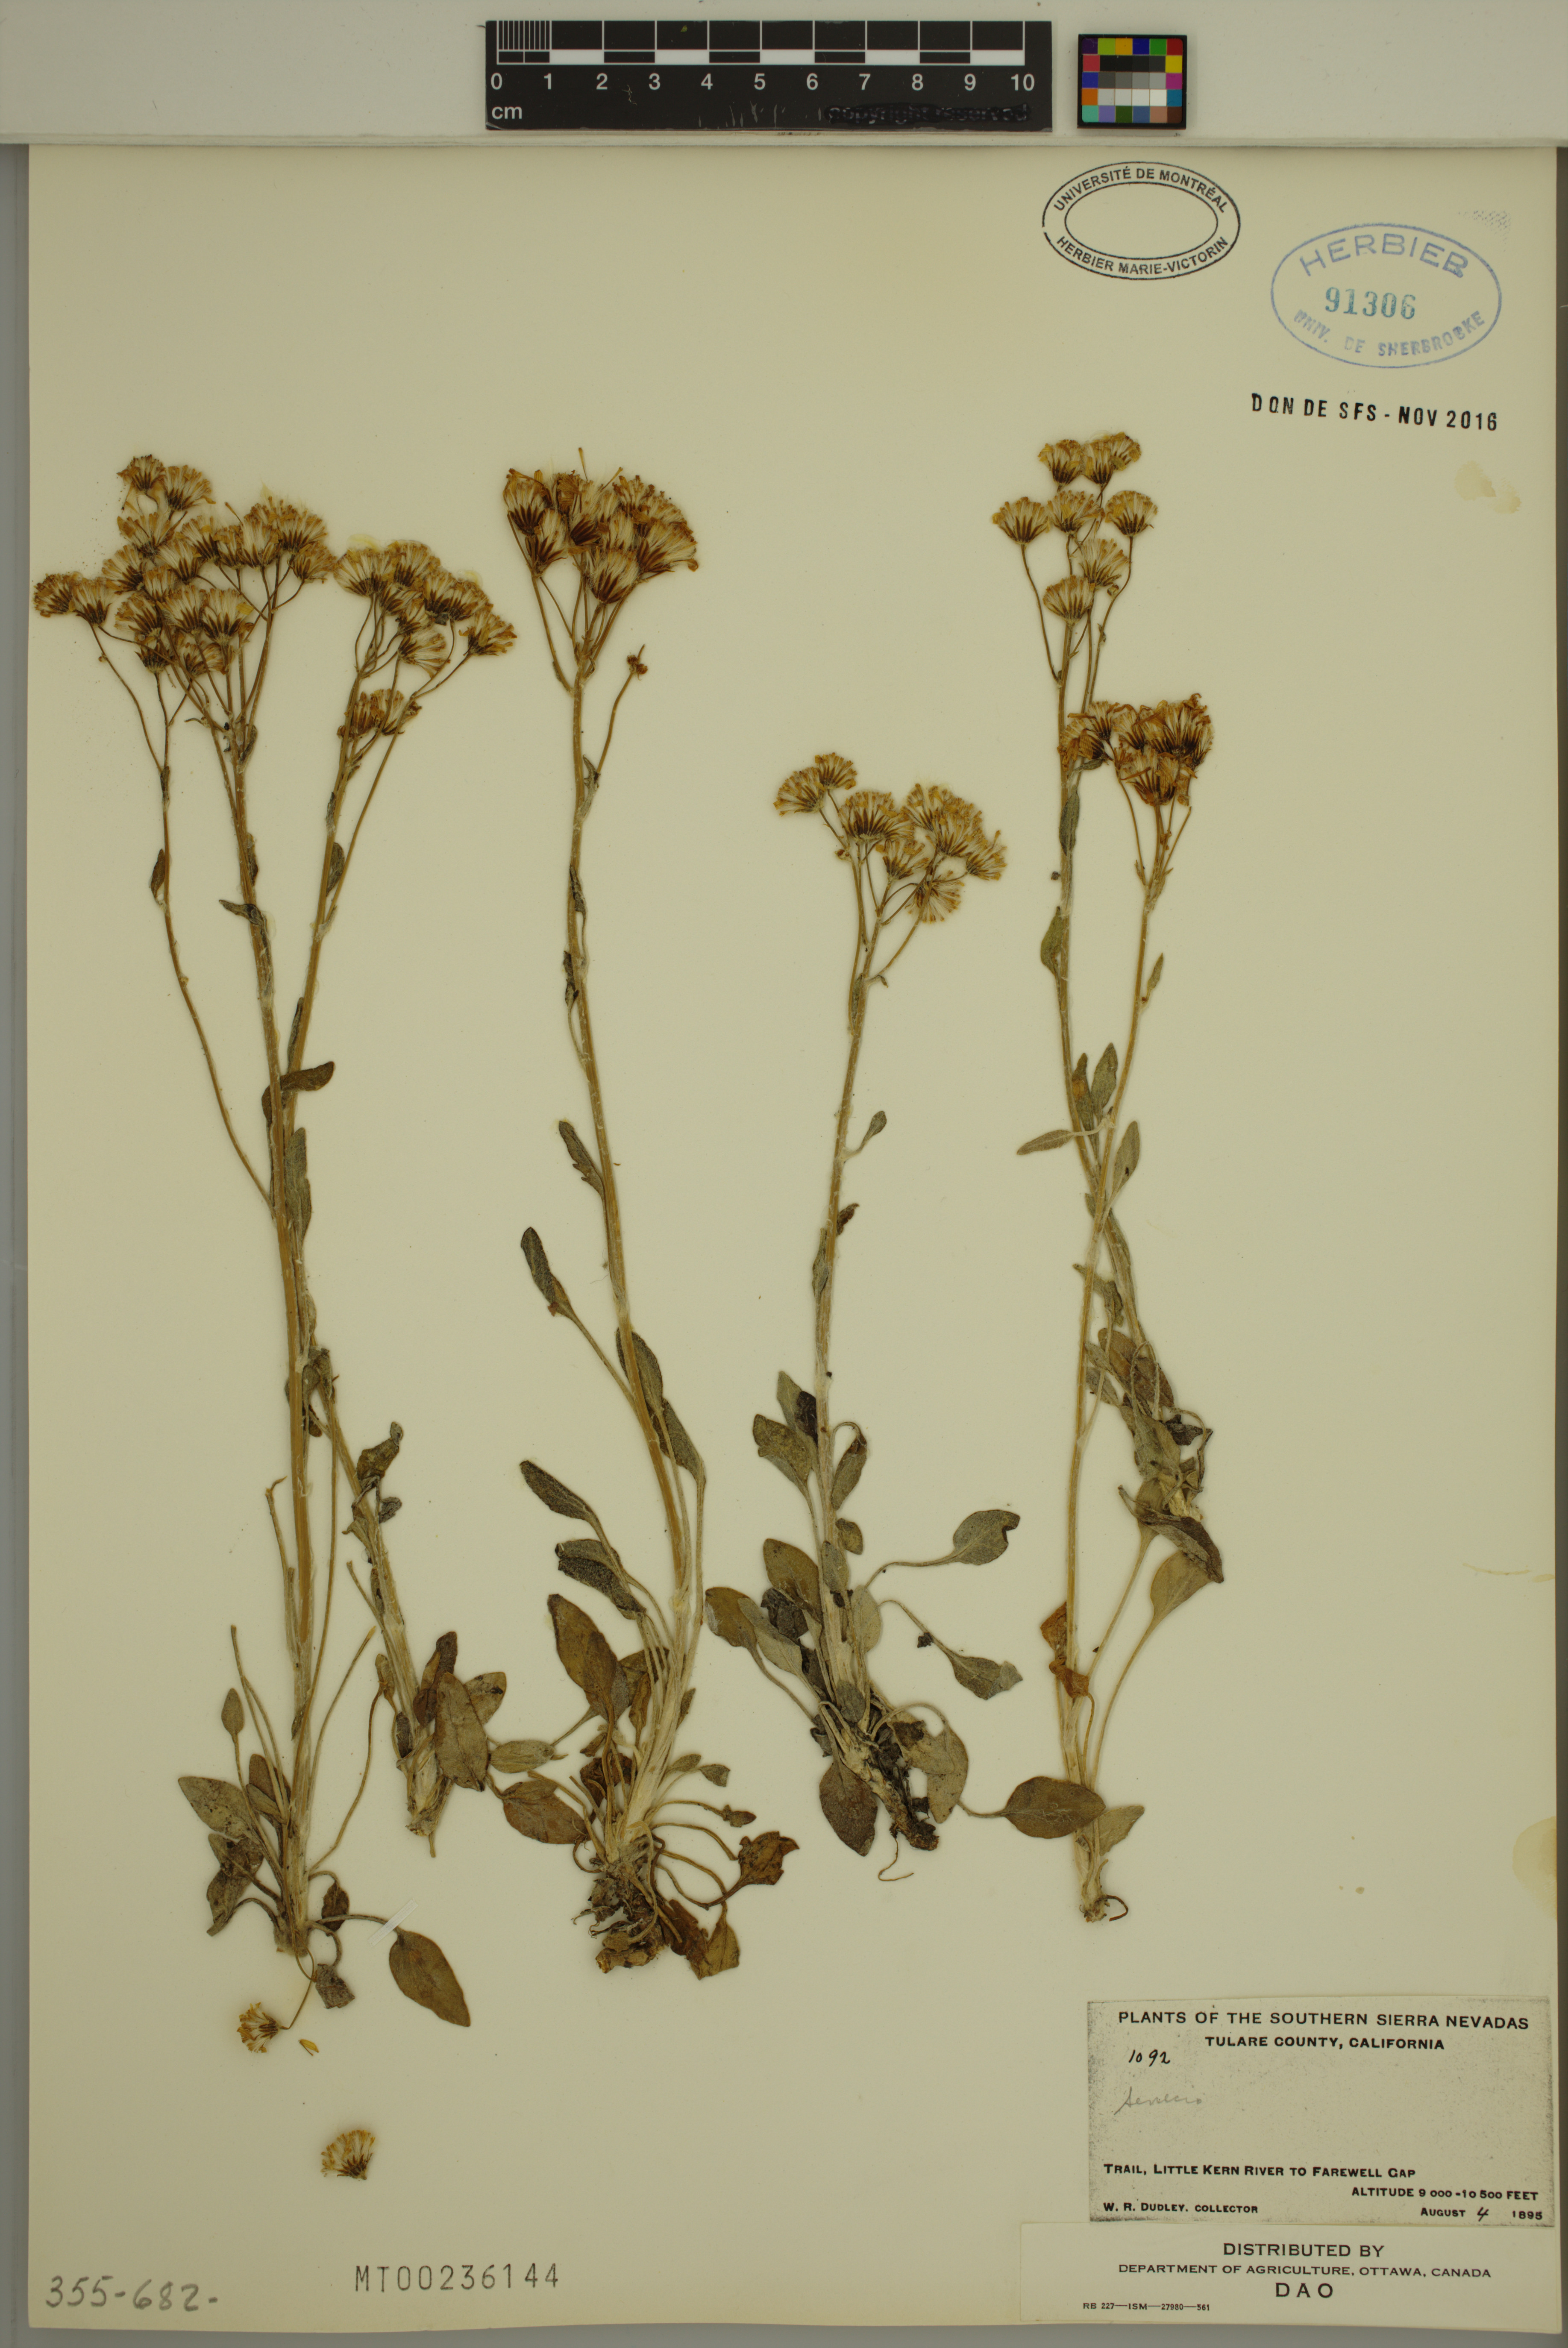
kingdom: Plantae
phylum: Tracheophyta
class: Magnoliopsida
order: Asterales
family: Asteraceae
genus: Senecio
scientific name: Senecio
